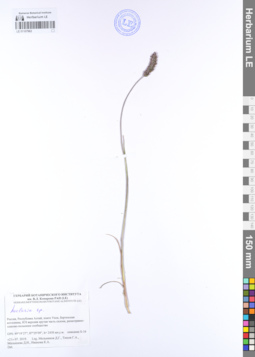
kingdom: Plantae
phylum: Tracheophyta
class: Liliopsida
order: Poales
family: Poaceae
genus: Koeleria
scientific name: Koeleria
